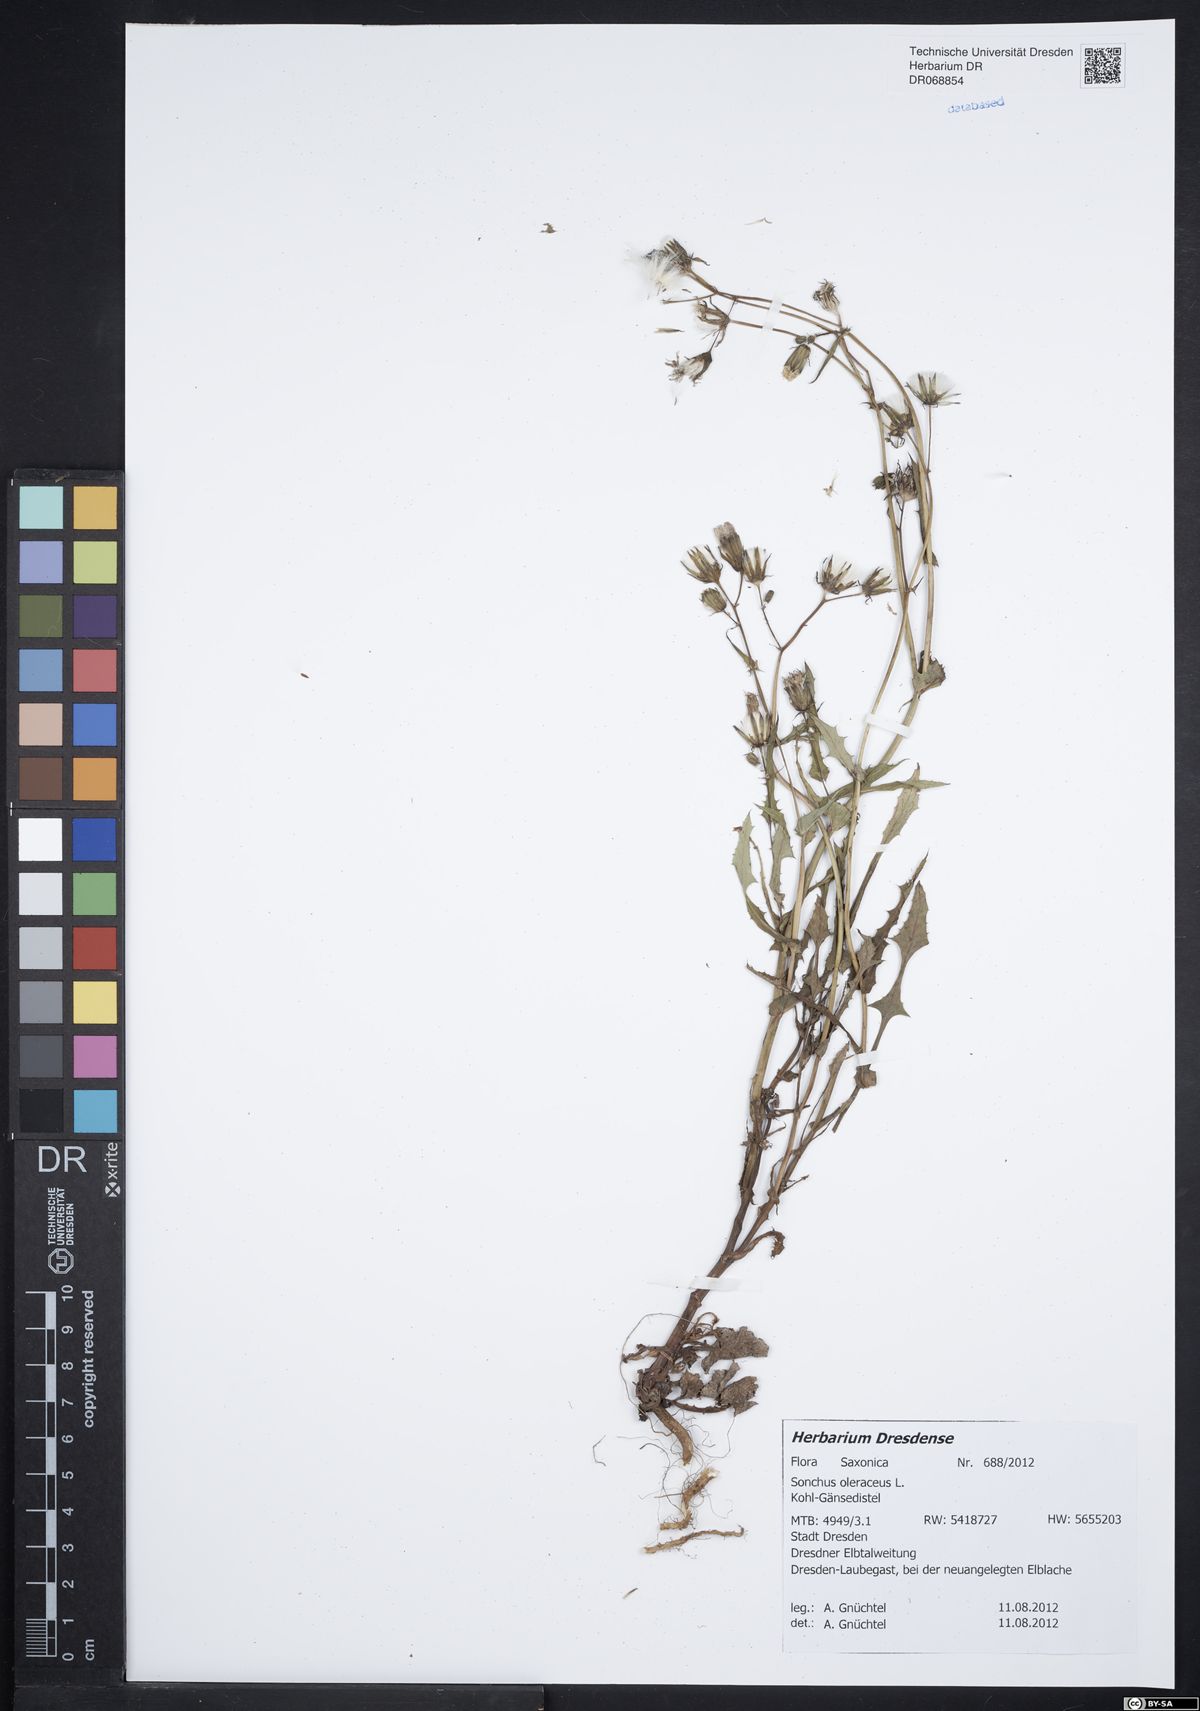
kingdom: Plantae
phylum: Tracheophyta
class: Magnoliopsida
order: Asterales
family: Asteraceae
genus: Sonchus
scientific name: Sonchus oleraceus
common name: Common sowthistle
